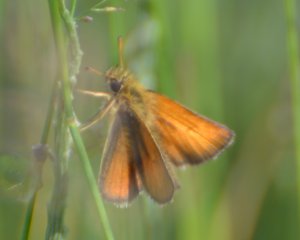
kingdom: Animalia
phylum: Arthropoda
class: Insecta
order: Lepidoptera
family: Hesperiidae
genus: Thymelicus
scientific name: Thymelicus lineola
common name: European Skipper
